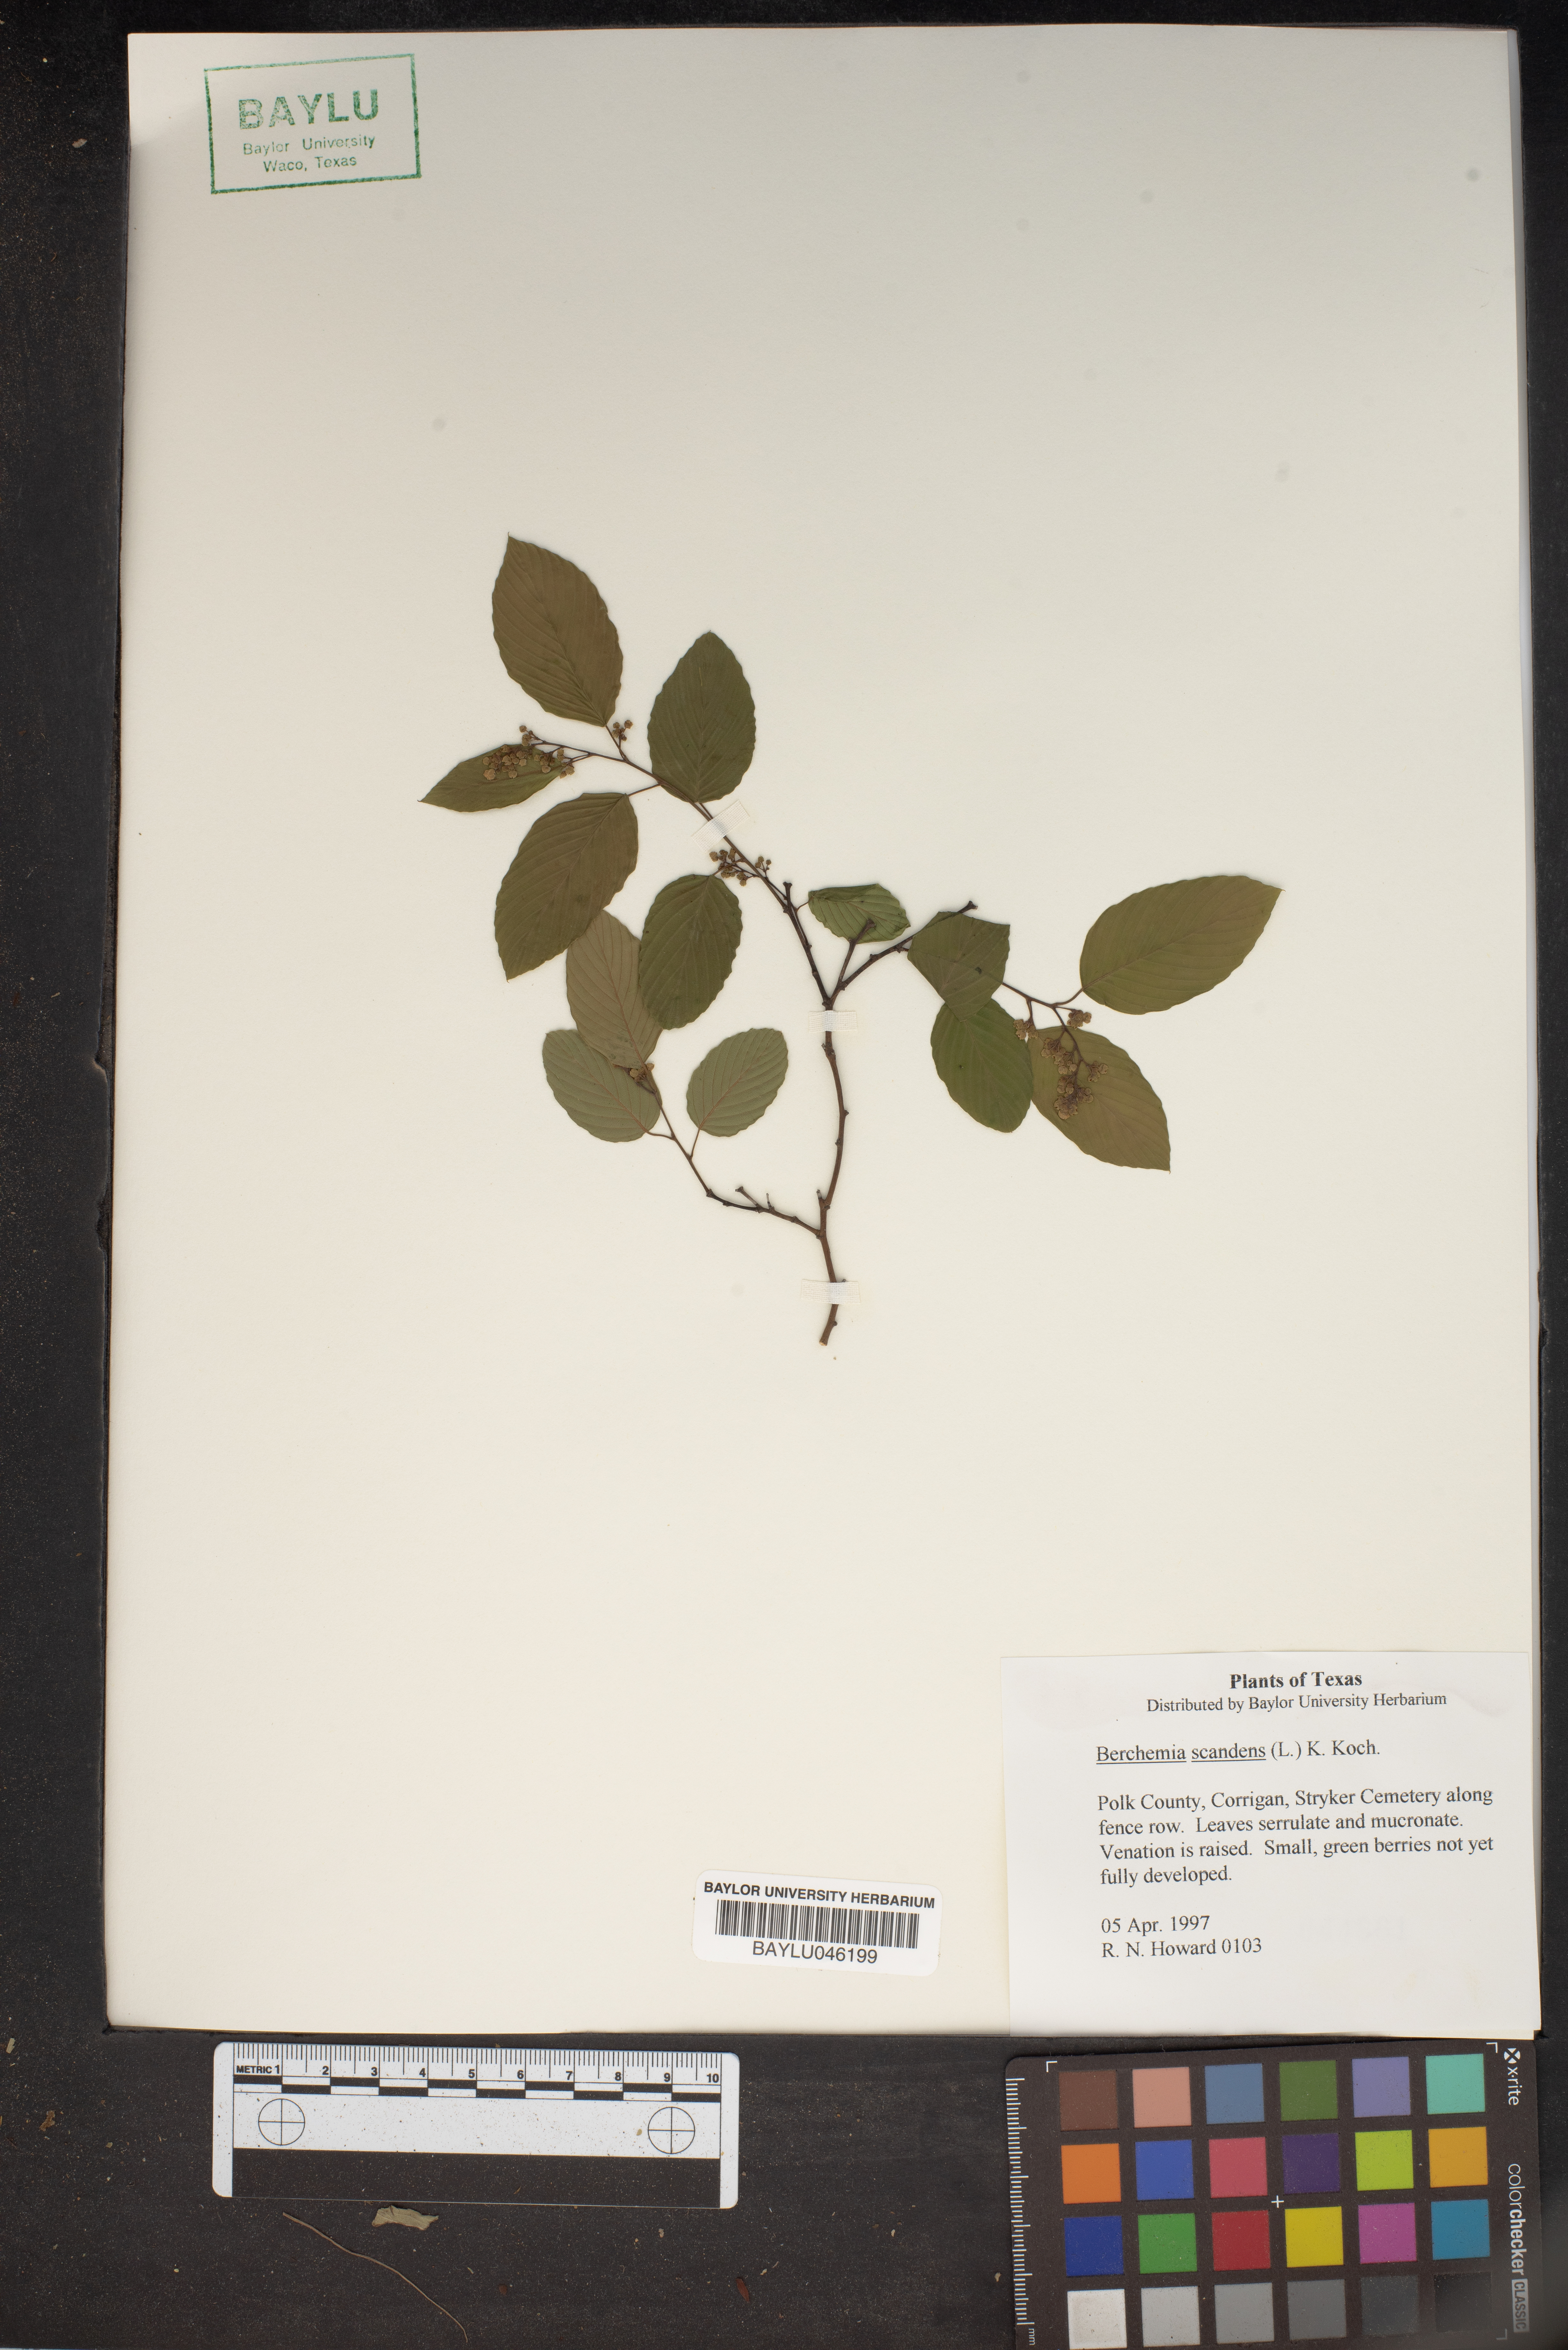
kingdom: Plantae
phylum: Tracheophyta
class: Magnoliopsida
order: Rosales
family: Rhamnaceae
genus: Berchemia
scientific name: Berchemia scandens
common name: Supplejack
